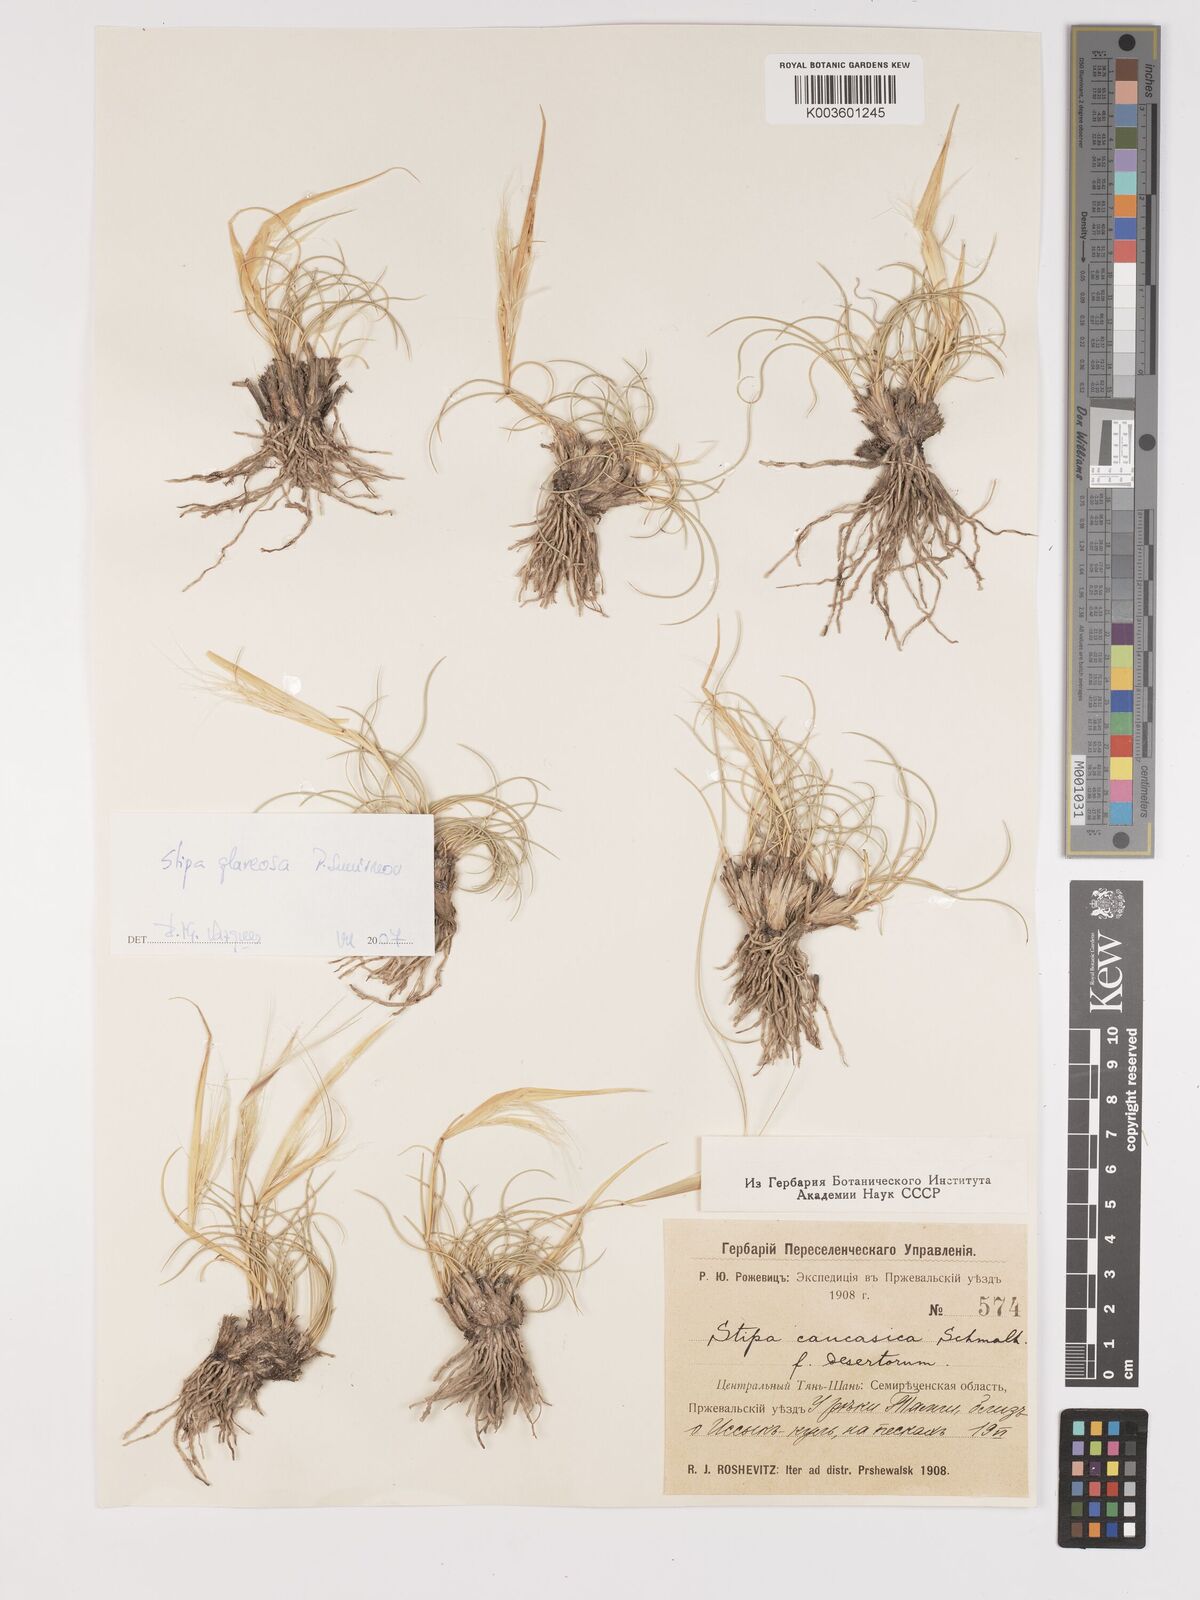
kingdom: Plantae
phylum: Tracheophyta
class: Liliopsida
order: Poales
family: Poaceae
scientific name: Poaceae
